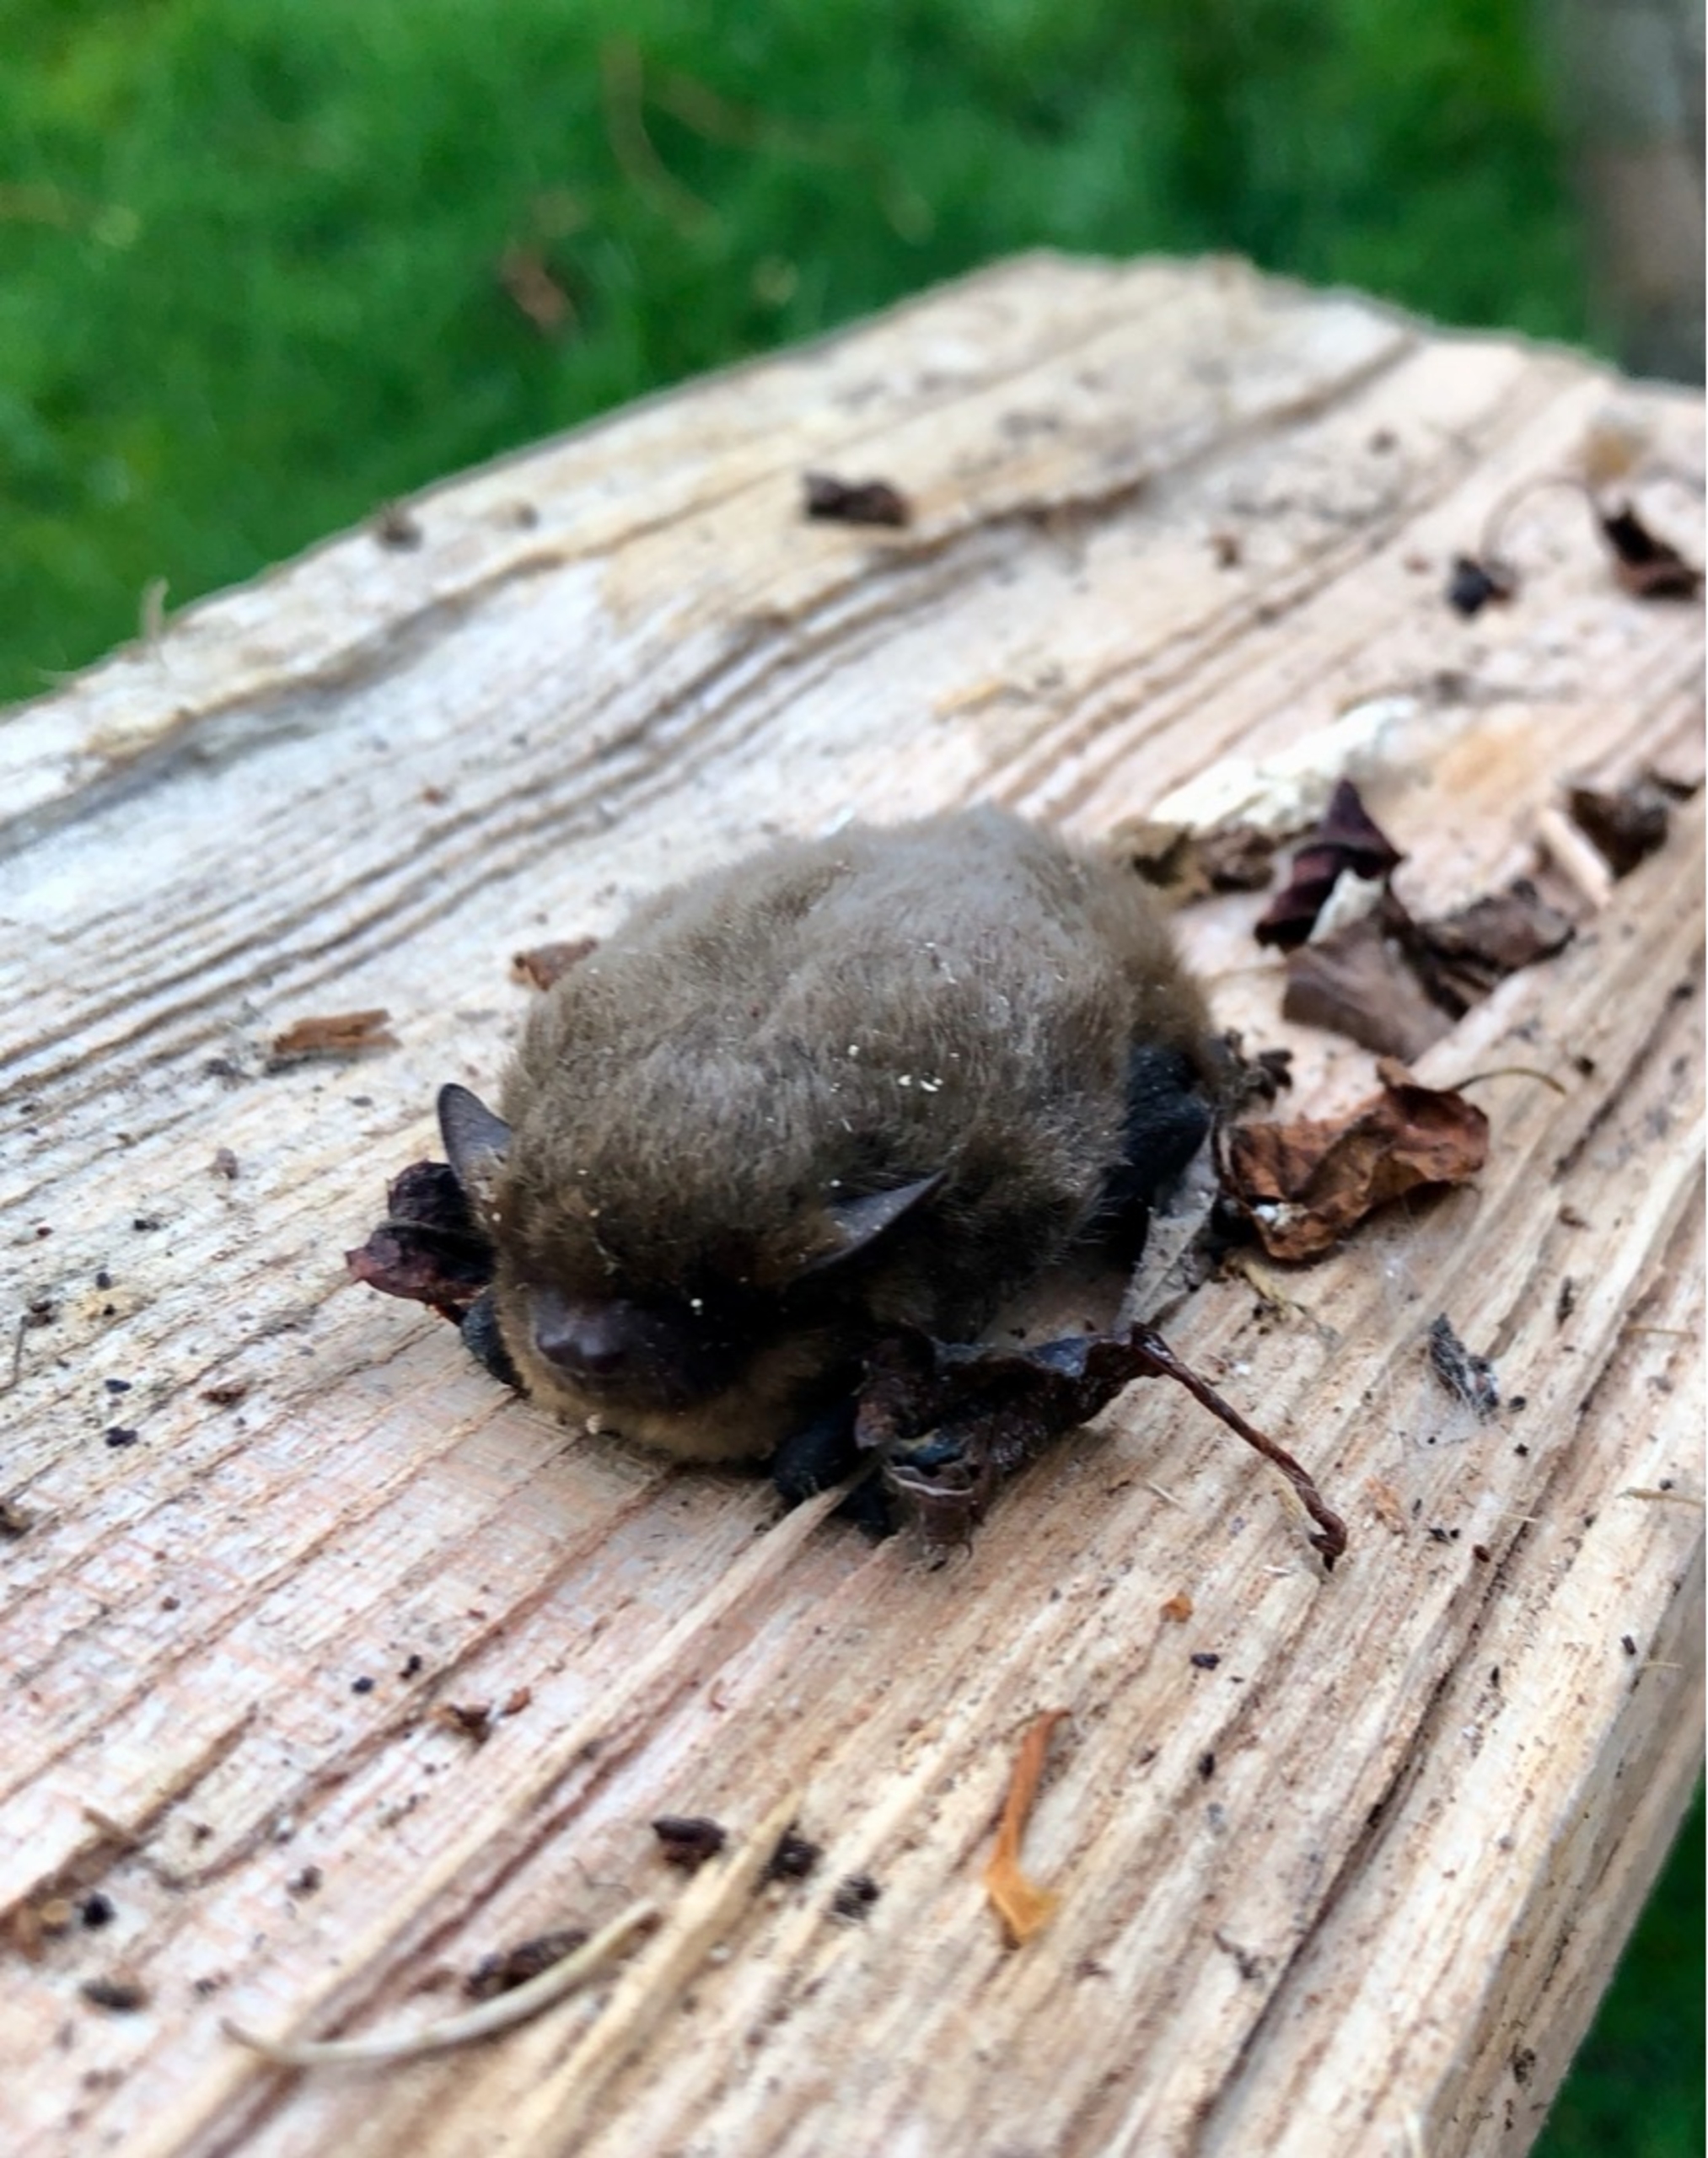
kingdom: Animalia
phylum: Chordata
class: Mammalia
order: Chiroptera
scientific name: Chiroptera
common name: Flagermus
